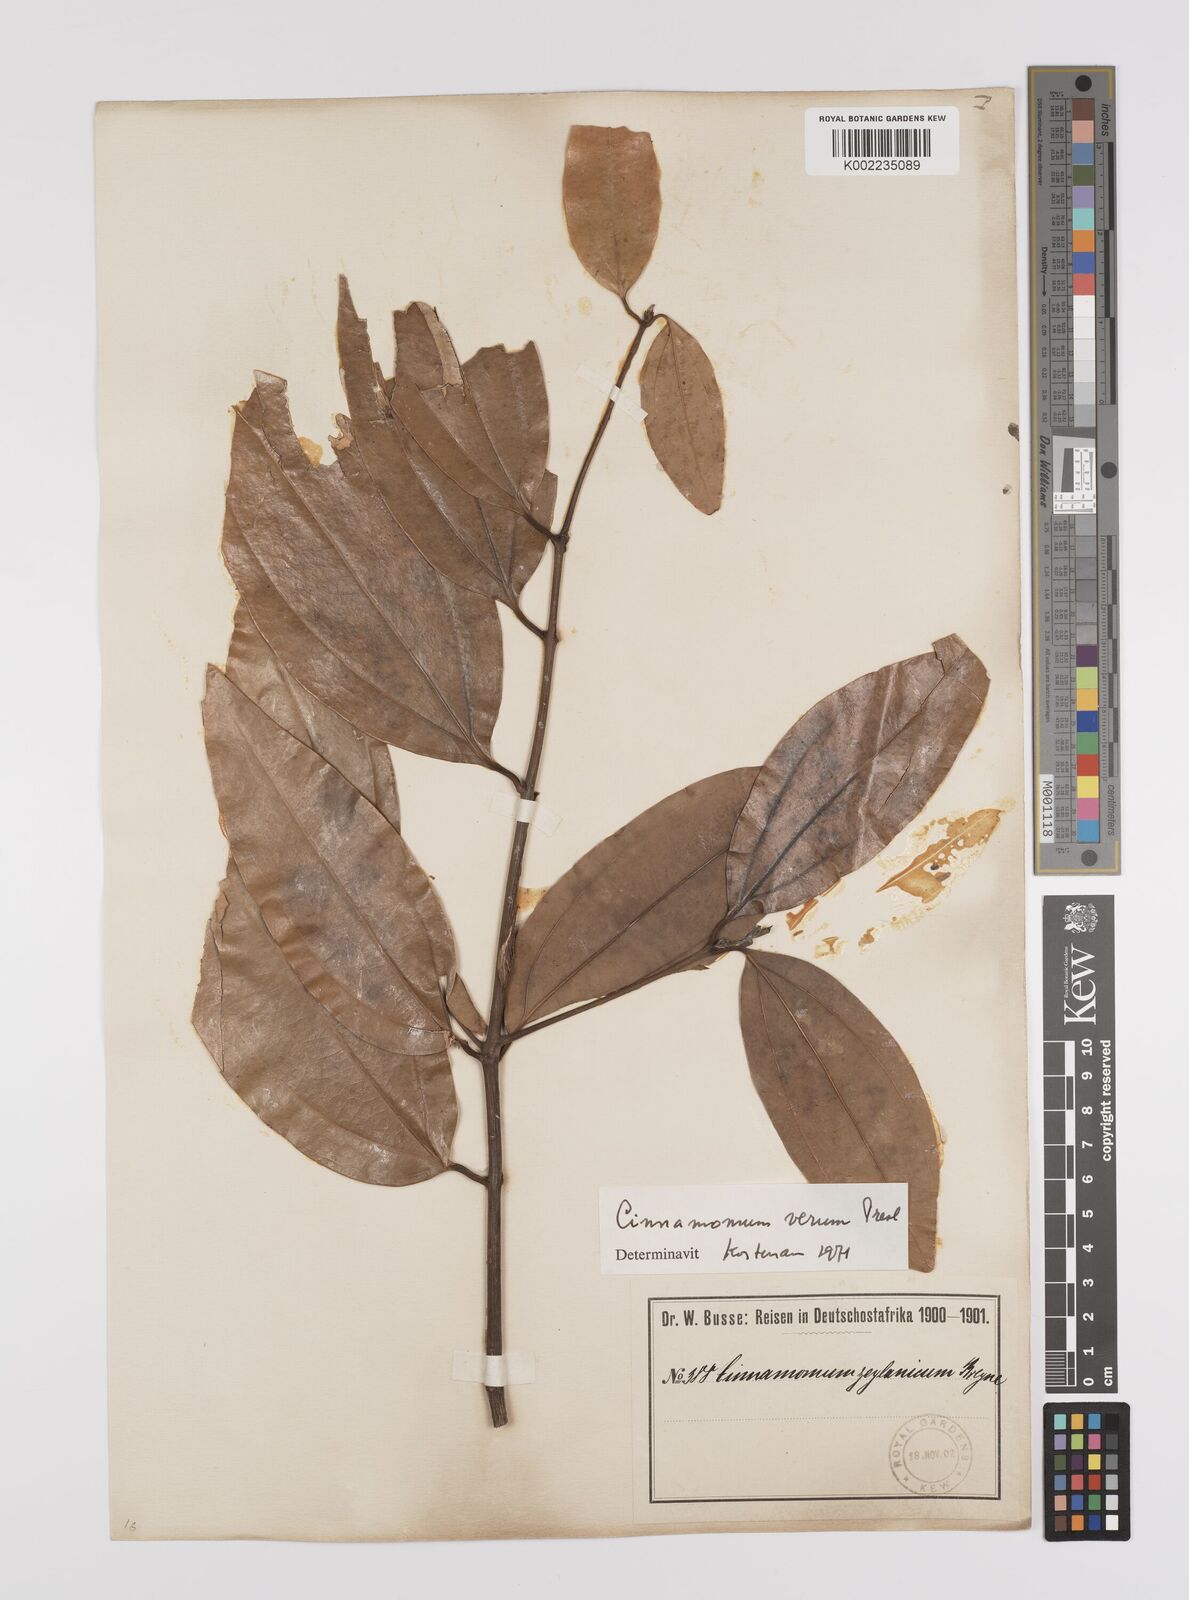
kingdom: Plantae
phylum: Tracheophyta
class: Magnoliopsida
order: Laurales
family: Lauraceae
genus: Cinnamomum
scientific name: Cinnamomum verum
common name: Cinnamon
